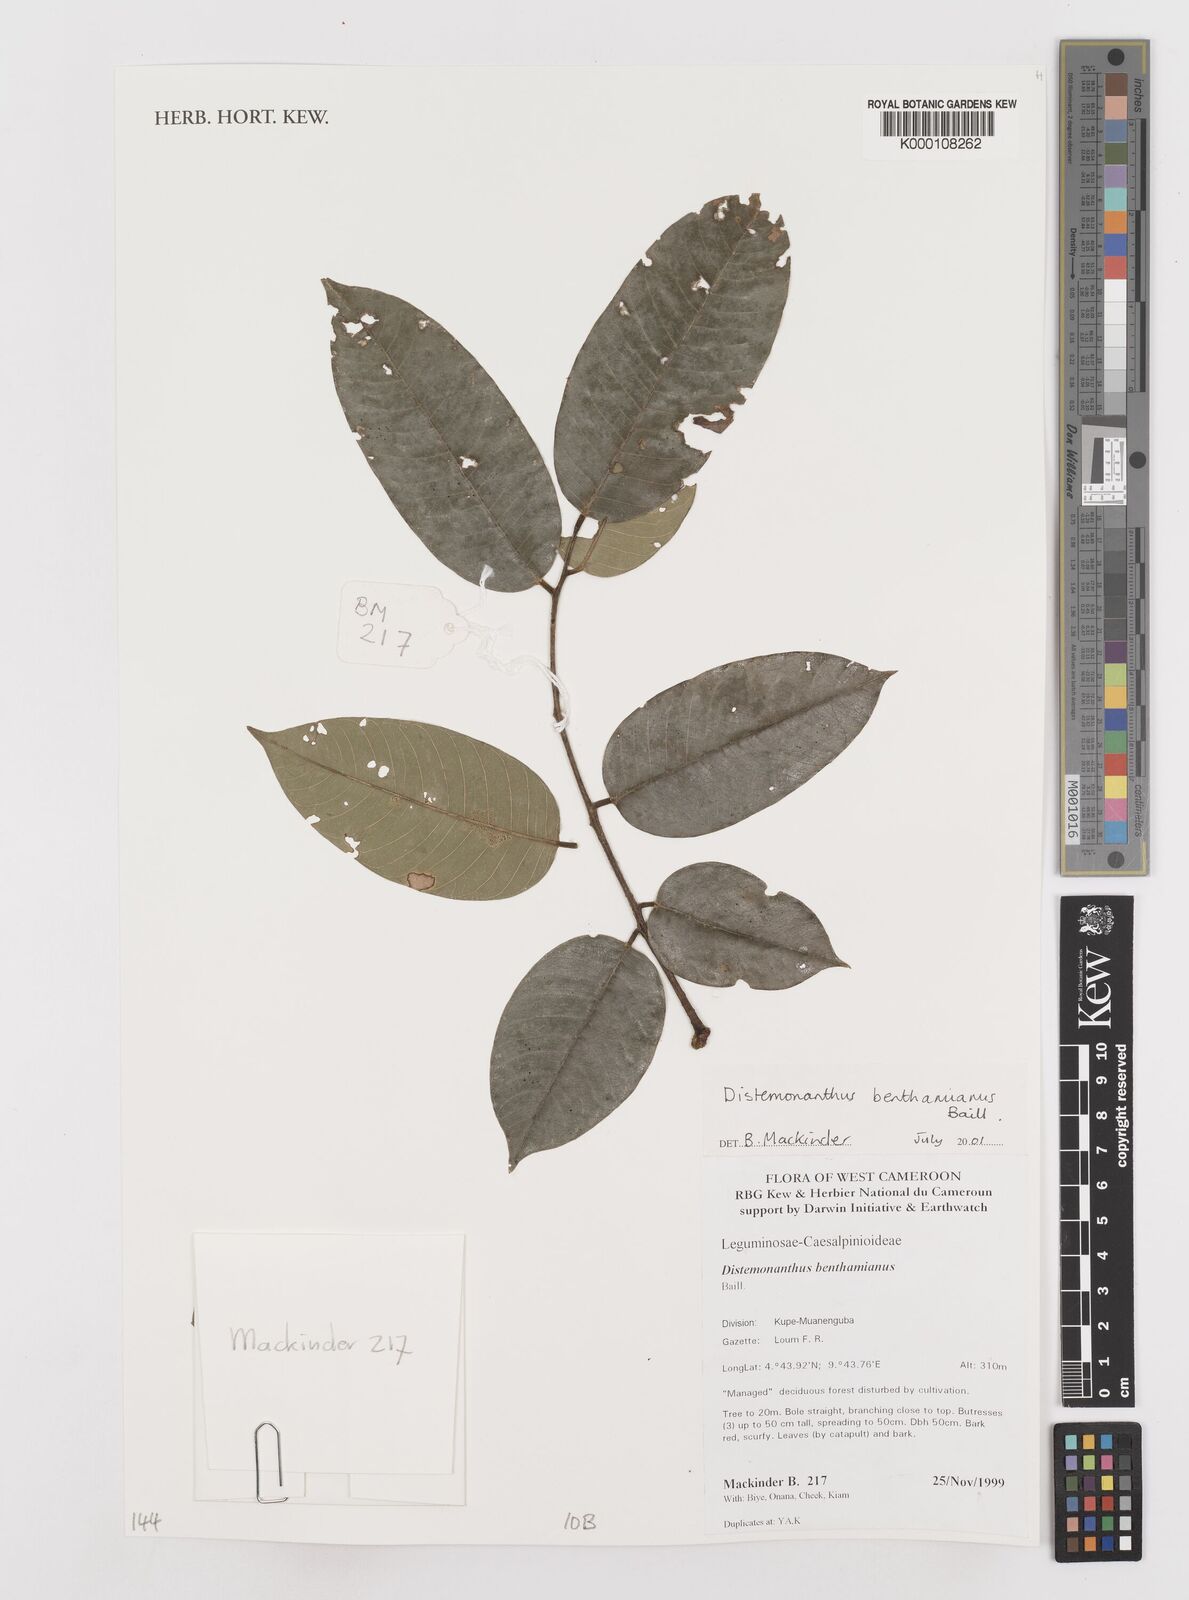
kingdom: Plantae
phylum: Tracheophyta
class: Magnoliopsida
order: Fabales
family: Fabaceae
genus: Distemonanthus
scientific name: Distemonanthus benthamianus
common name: Yellow satinwood
